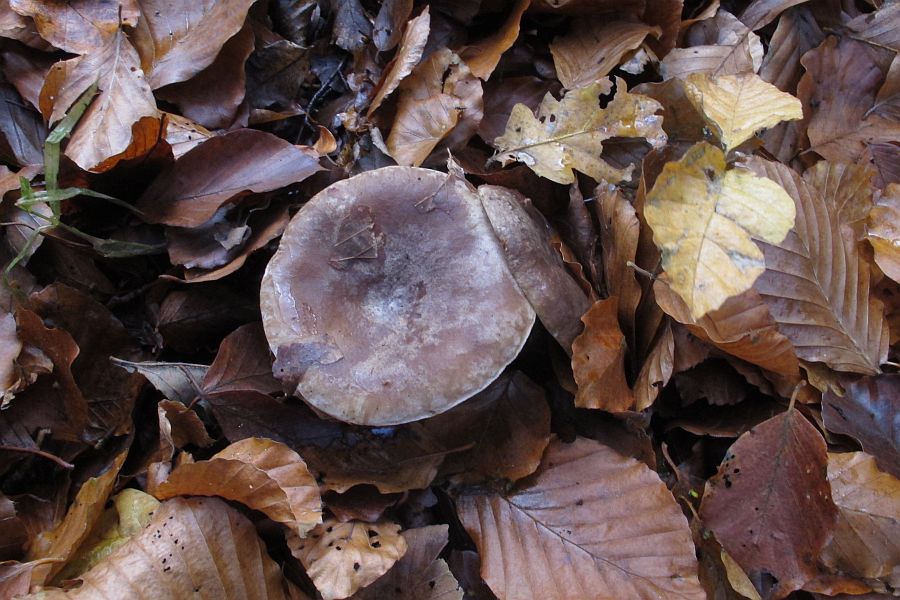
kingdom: Fungi
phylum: Basidiomycota
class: Agaricomycetes
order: Russulales
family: Russulaceae
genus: Lactarius
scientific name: Lactarius fluens
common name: lysrandet mælkehat
